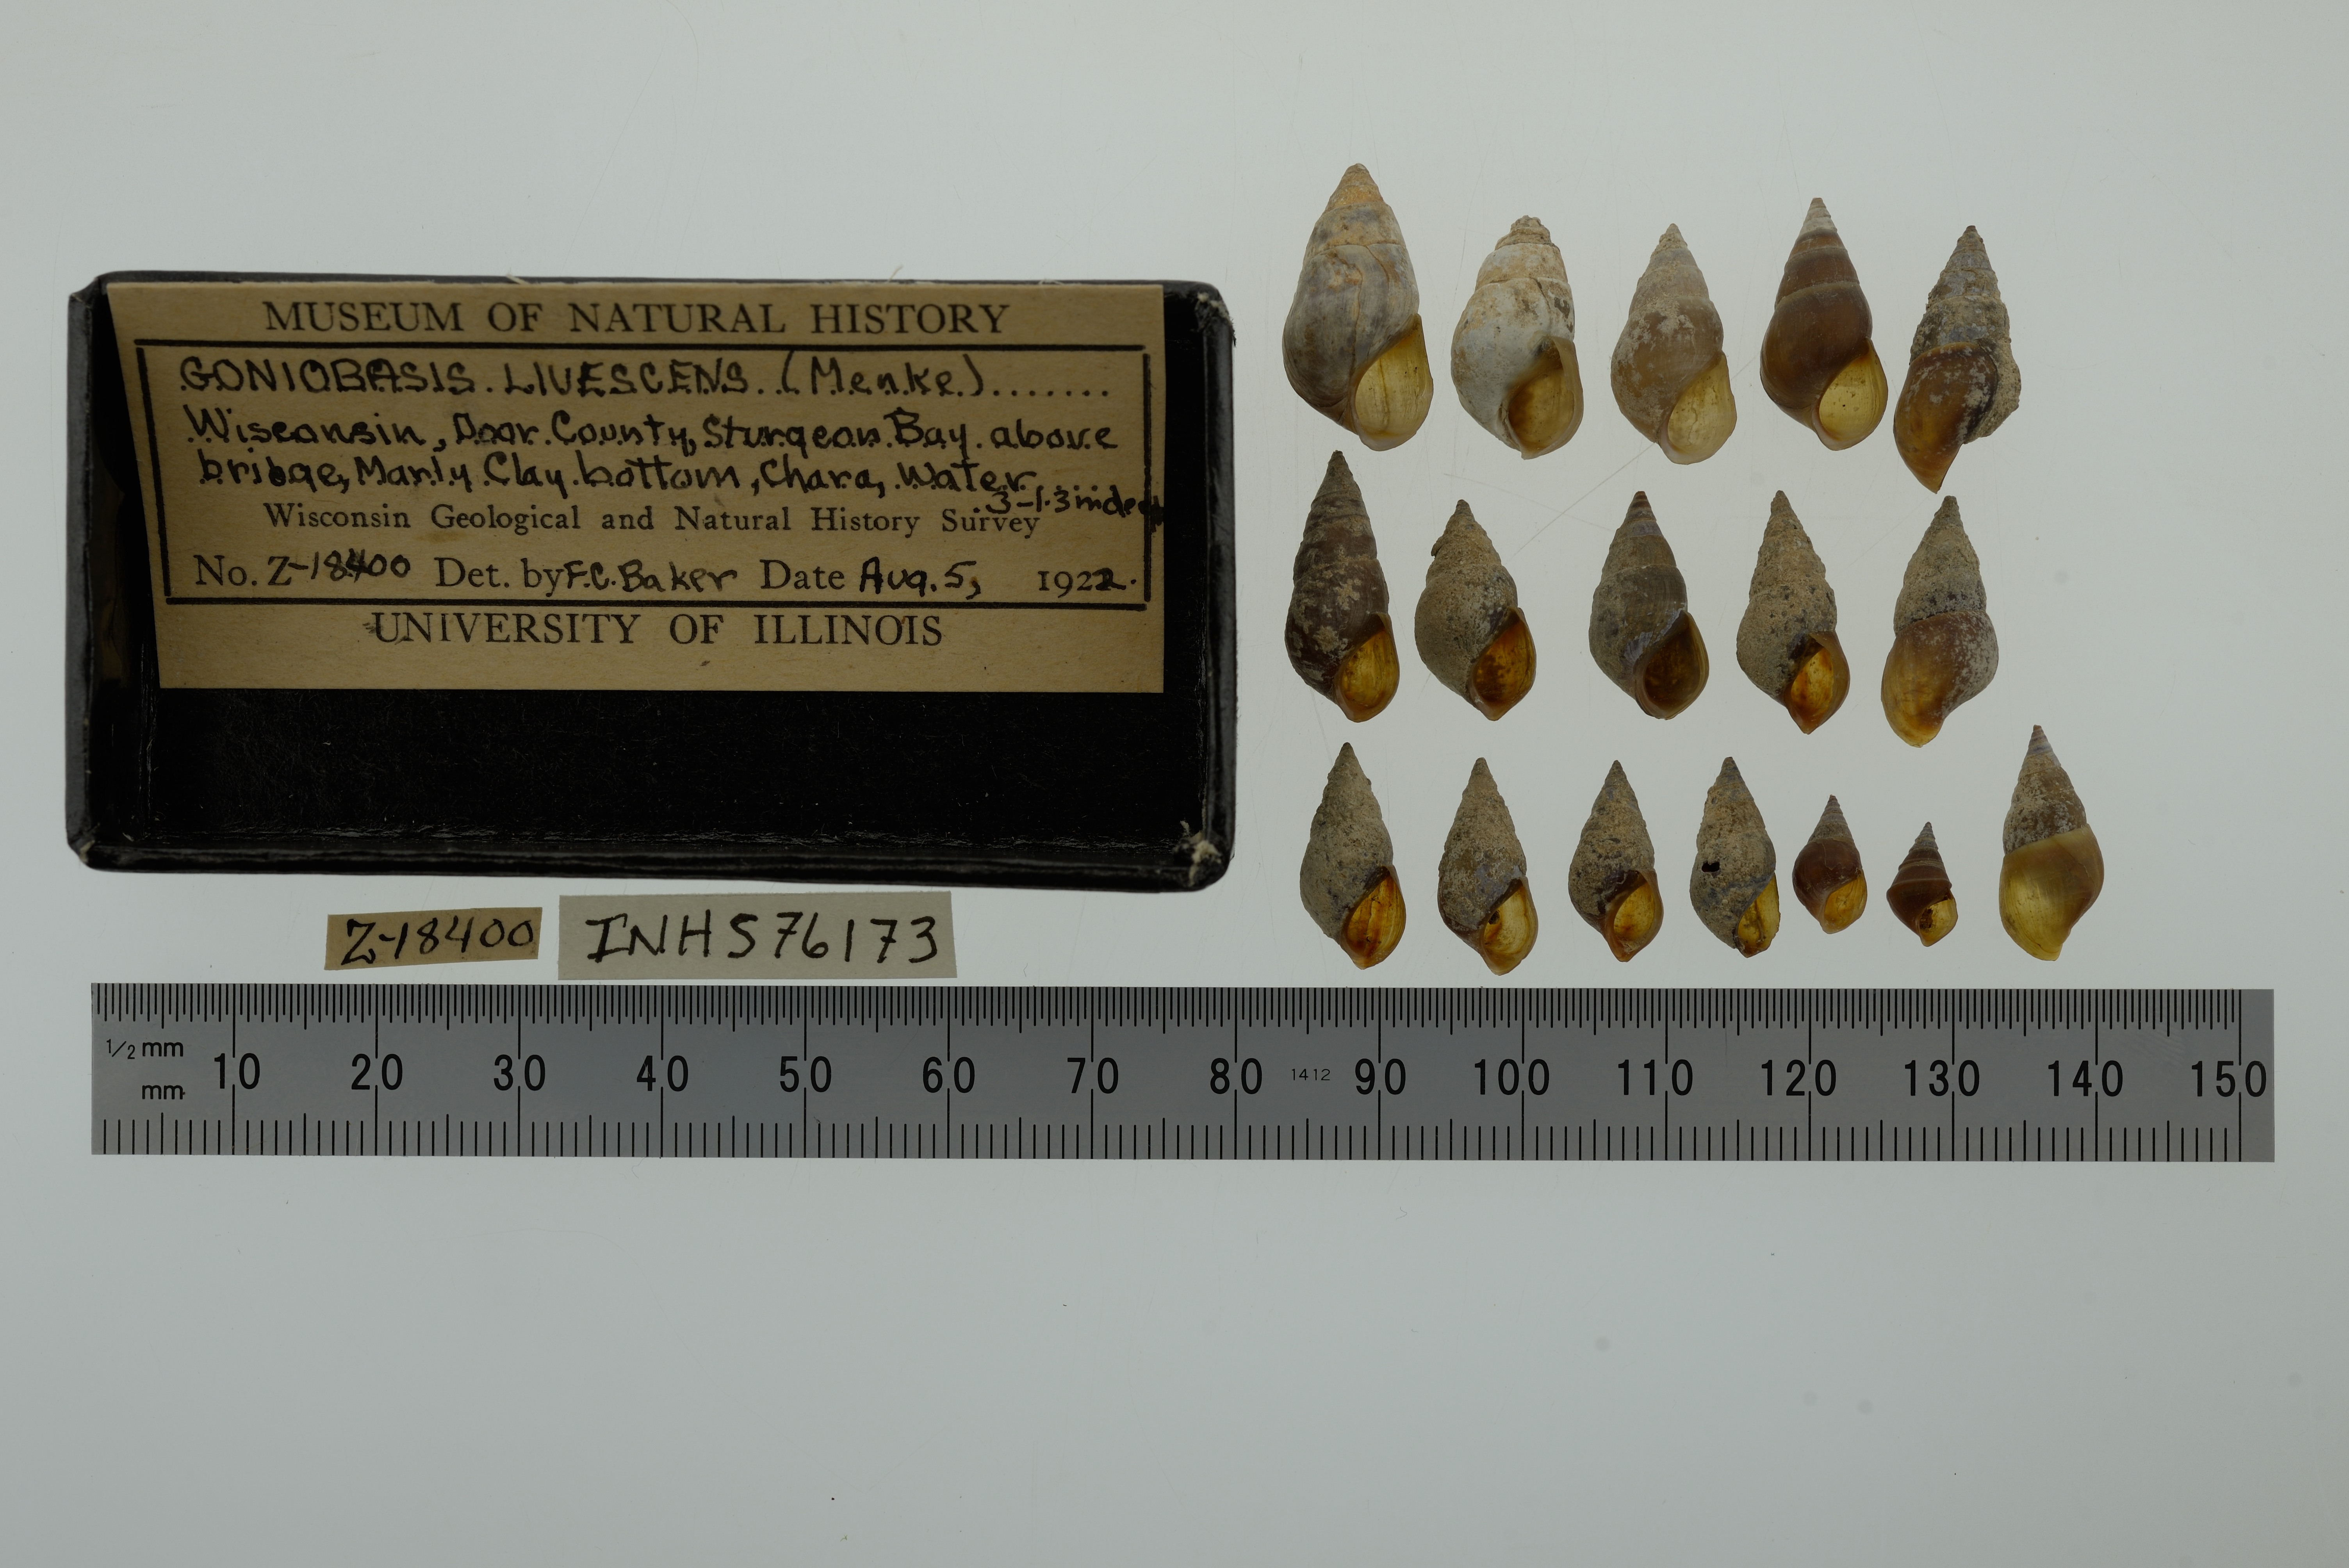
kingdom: Animalia
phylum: Mollusca
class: Gastropoda
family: Pleuroceridae
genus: Elimia
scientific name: Elimia livescens
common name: Liver elimia
